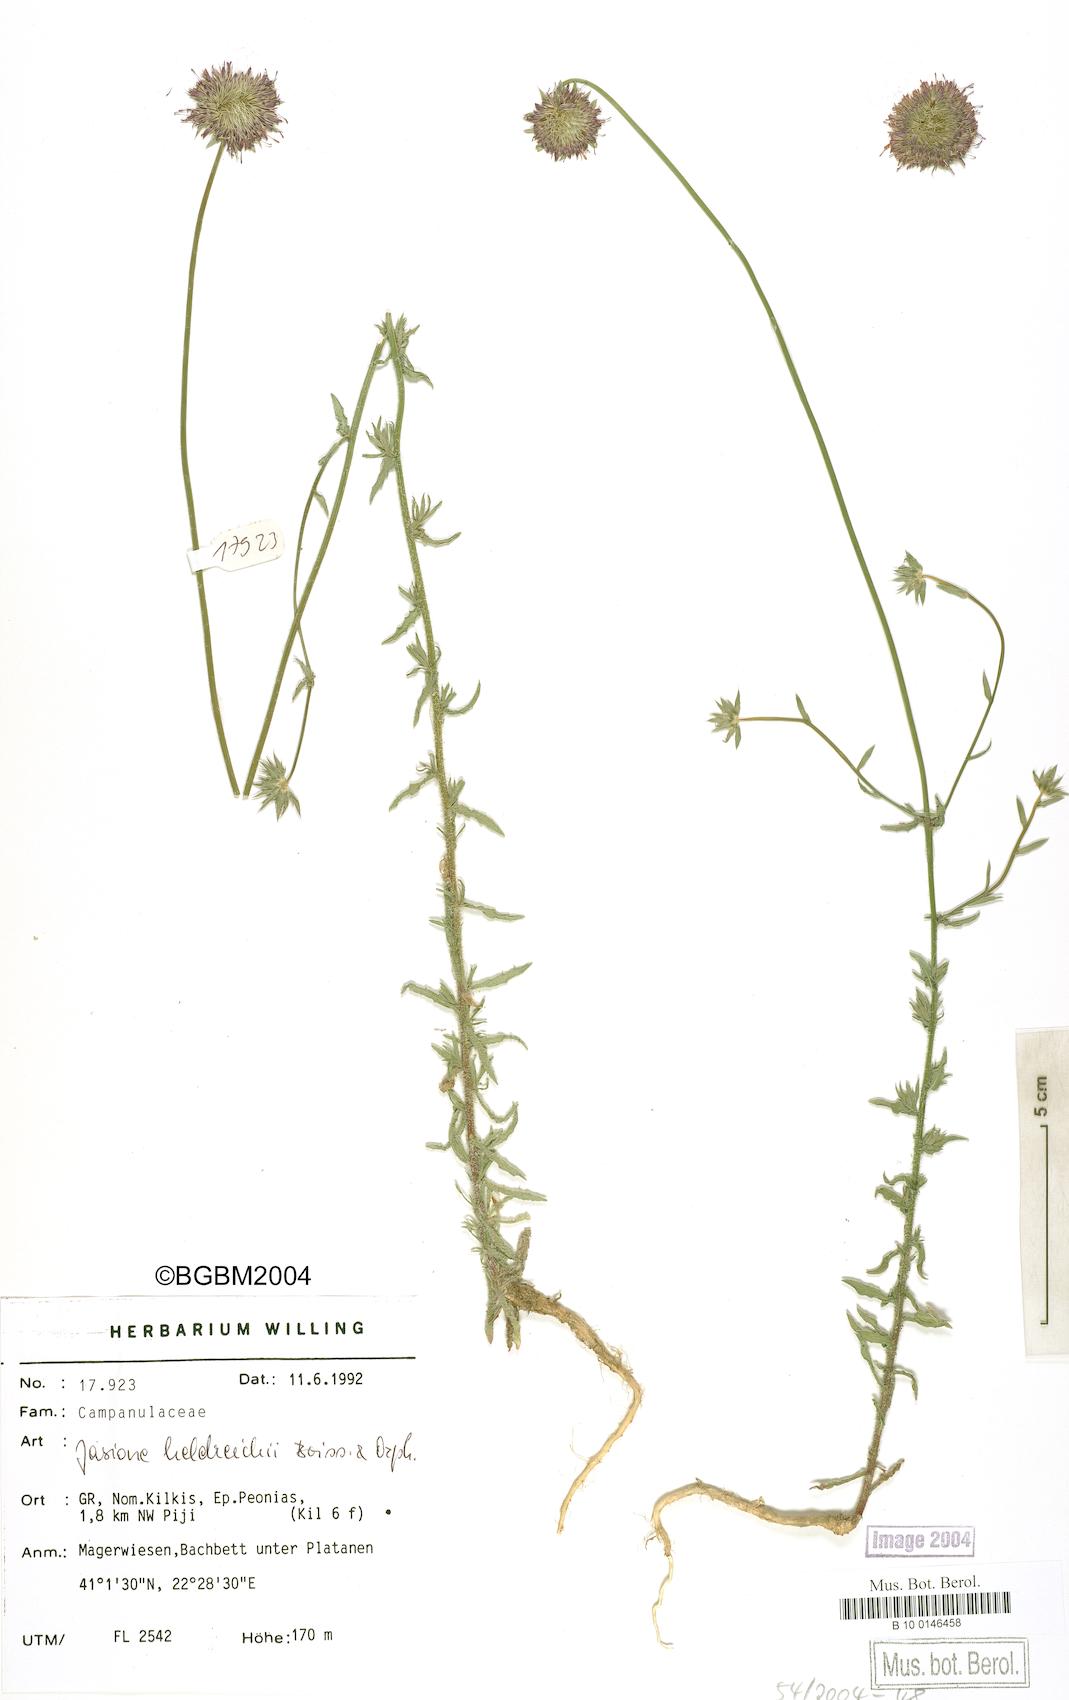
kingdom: Plantae
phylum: Tracheophyta
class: Magnoliopsida
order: Asterales
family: Campanulaceae
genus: Jasione
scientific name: Jasione heldreichii
